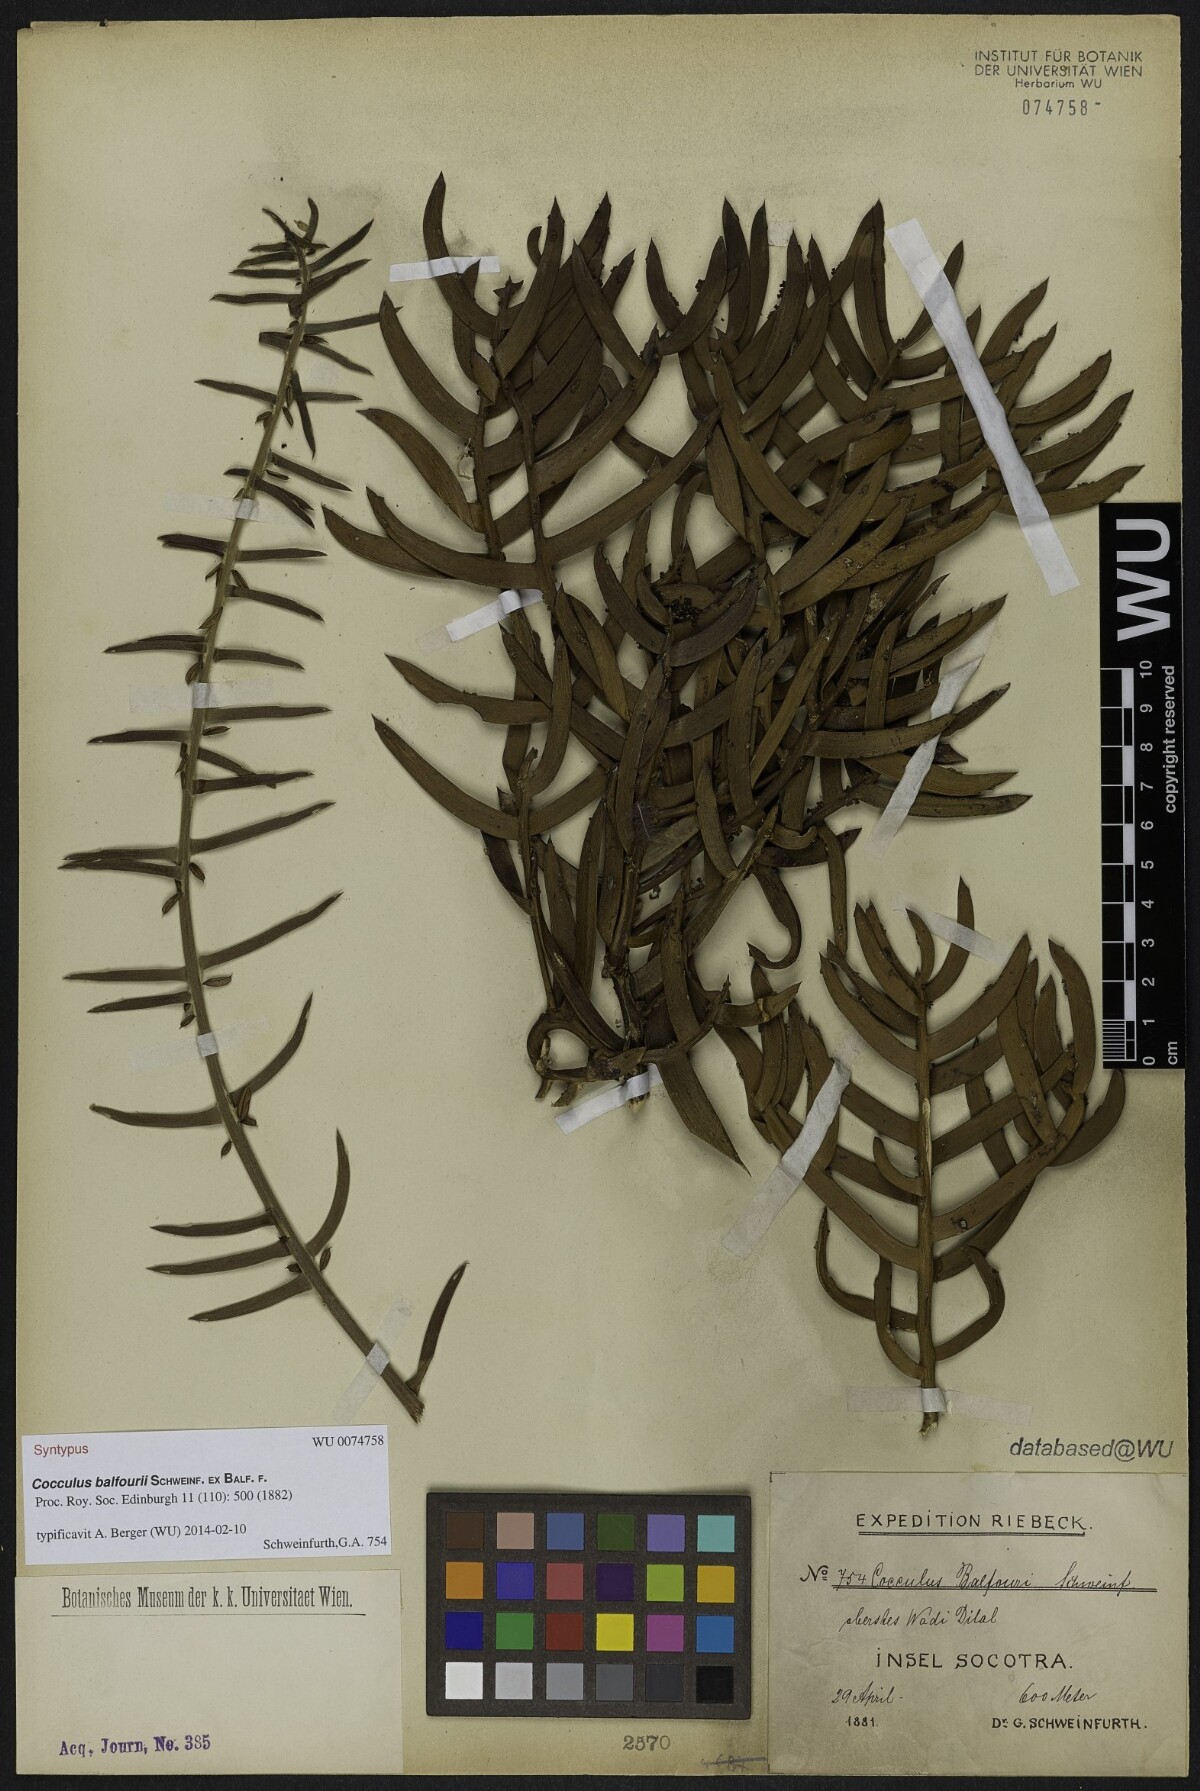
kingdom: Plantae
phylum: Tracheophyta
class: Magnoliopsida
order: Ranunculales
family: Menispermaceae
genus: Cocculus
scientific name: Cocculus balfourii
